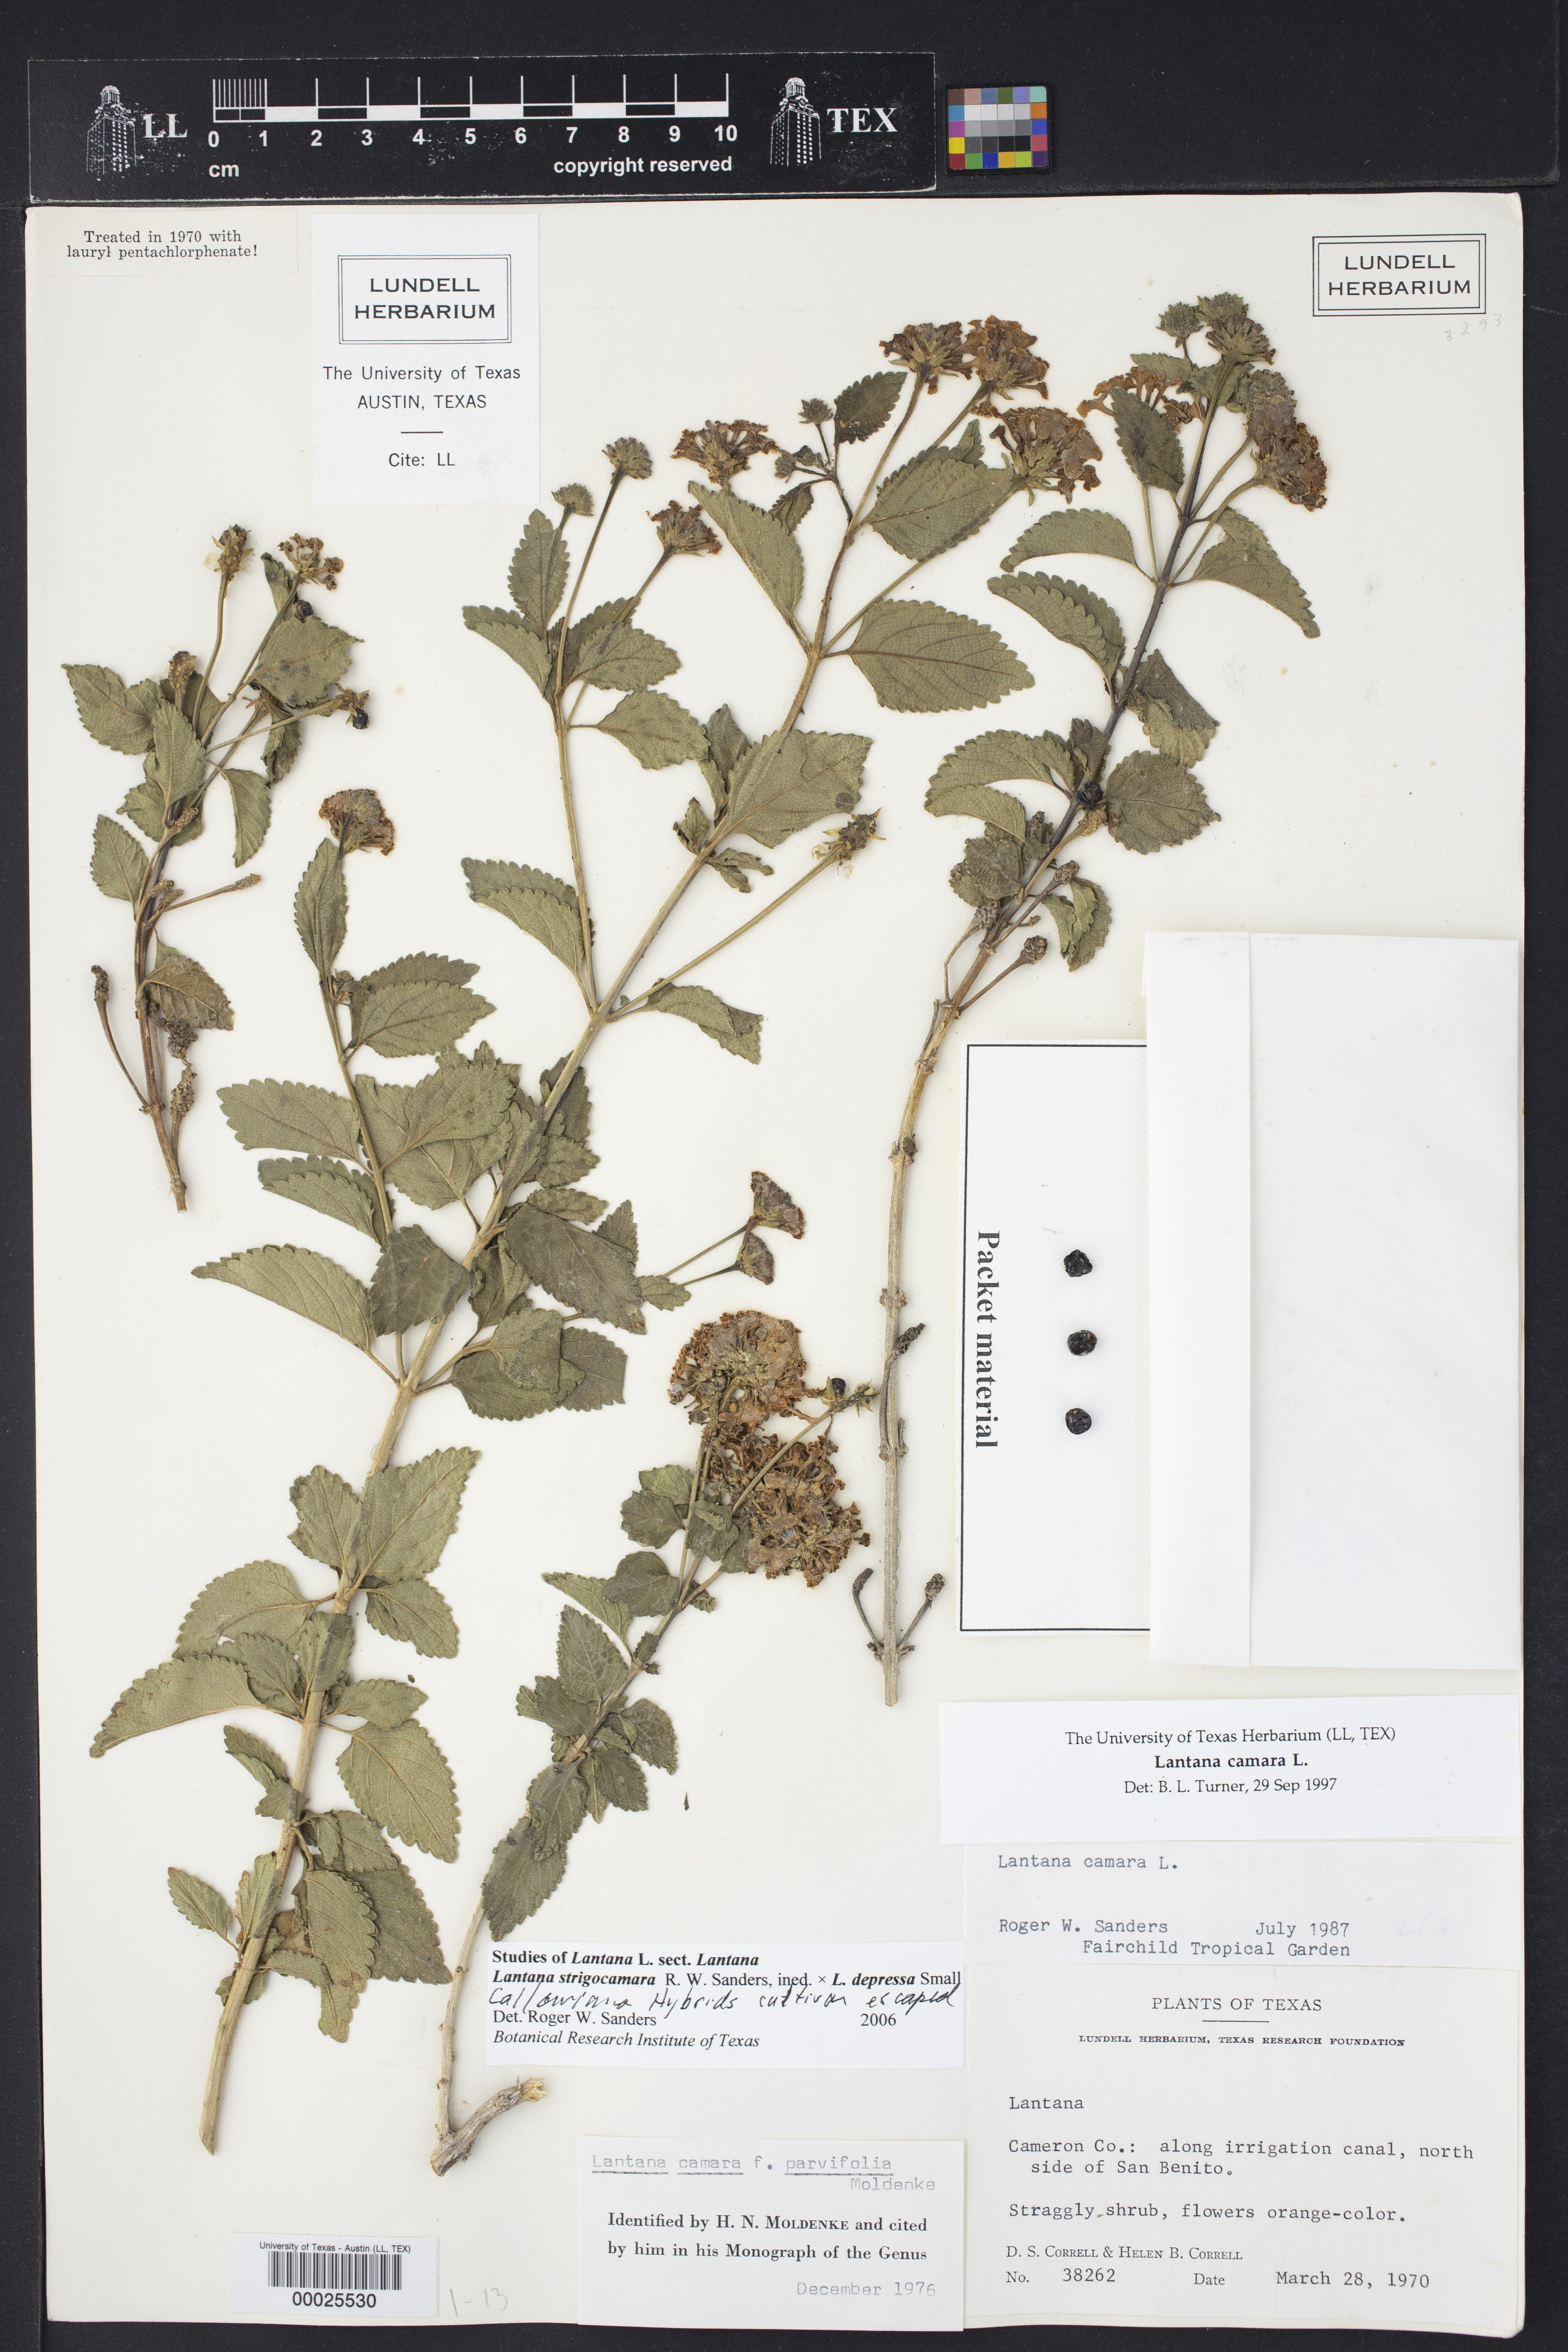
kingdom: Plantae
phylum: Tracheophyta
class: Magnoliopsida
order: Lamiales
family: Verbenaceae
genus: Lantana
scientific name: Lantana
